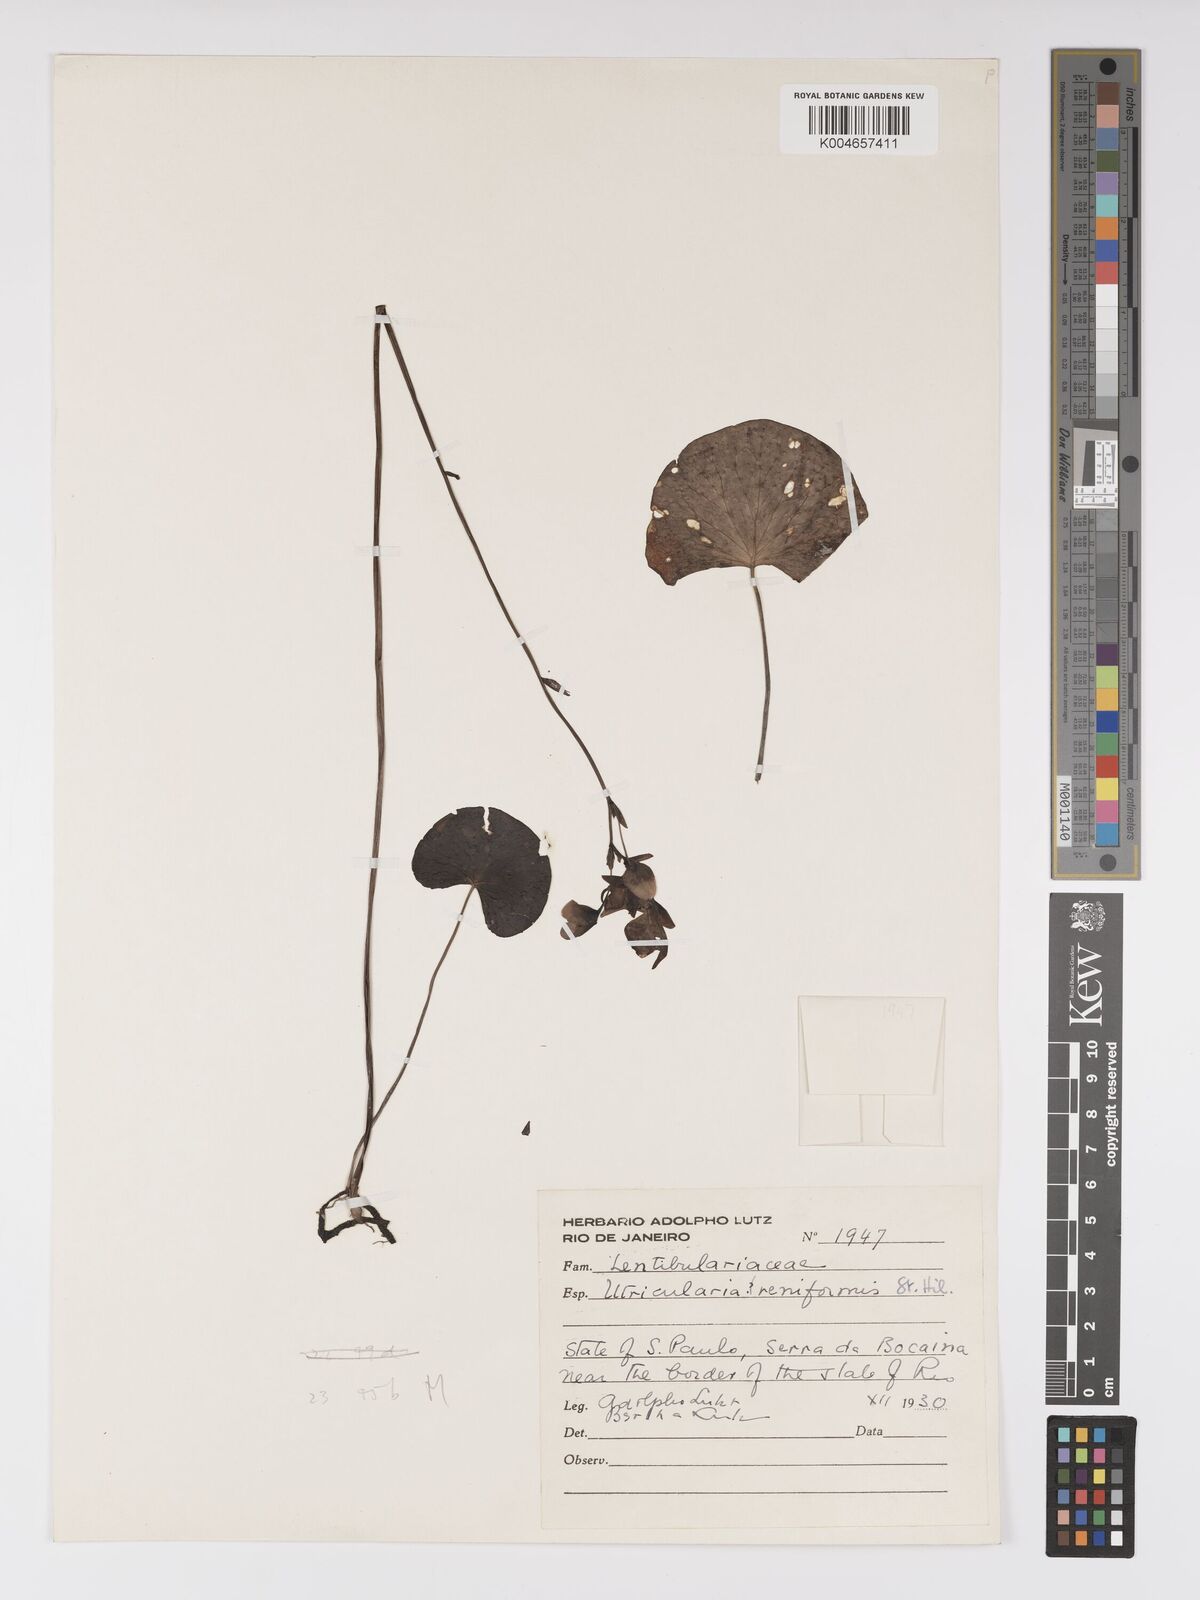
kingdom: Plantae
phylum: Tracheophyta
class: Magnoliopsida
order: Lamiales
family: Lentibulariaceae
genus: Utricularia
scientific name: Utricularia reniformis
